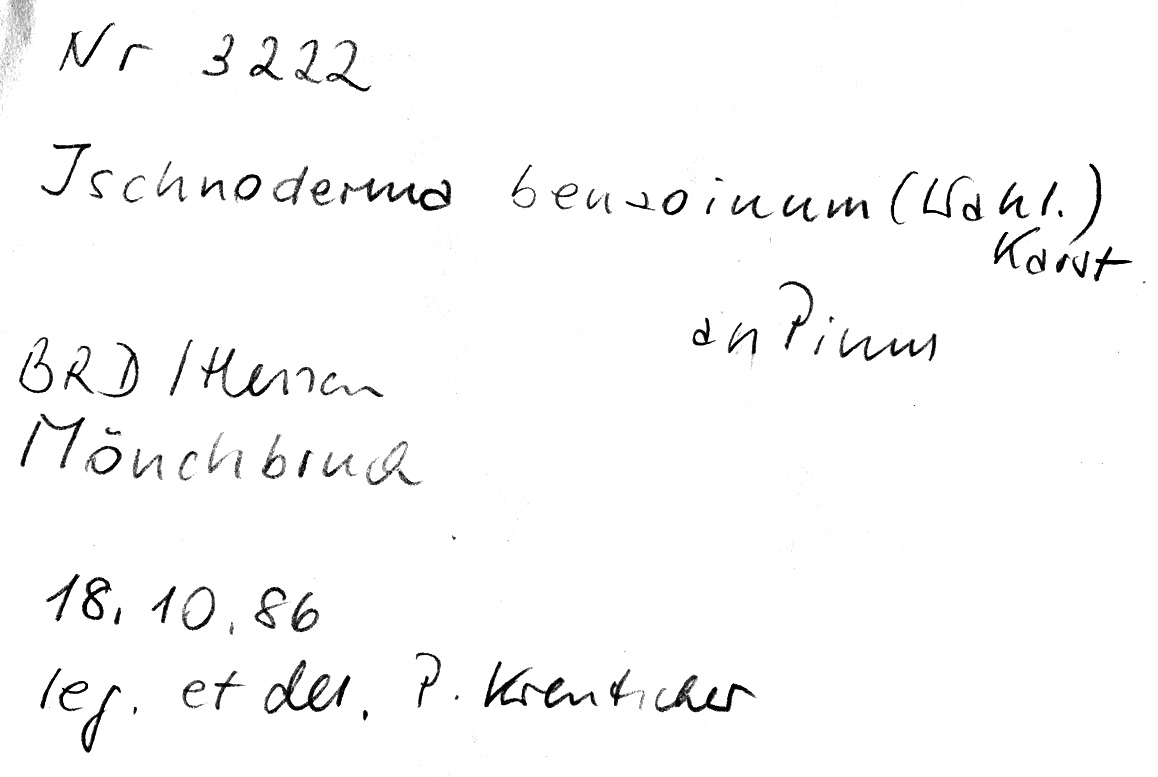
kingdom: Plantae
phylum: Tracheophyta
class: Pinopsida
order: Pinales
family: Pinaceae
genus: Pinus
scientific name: Pinus
